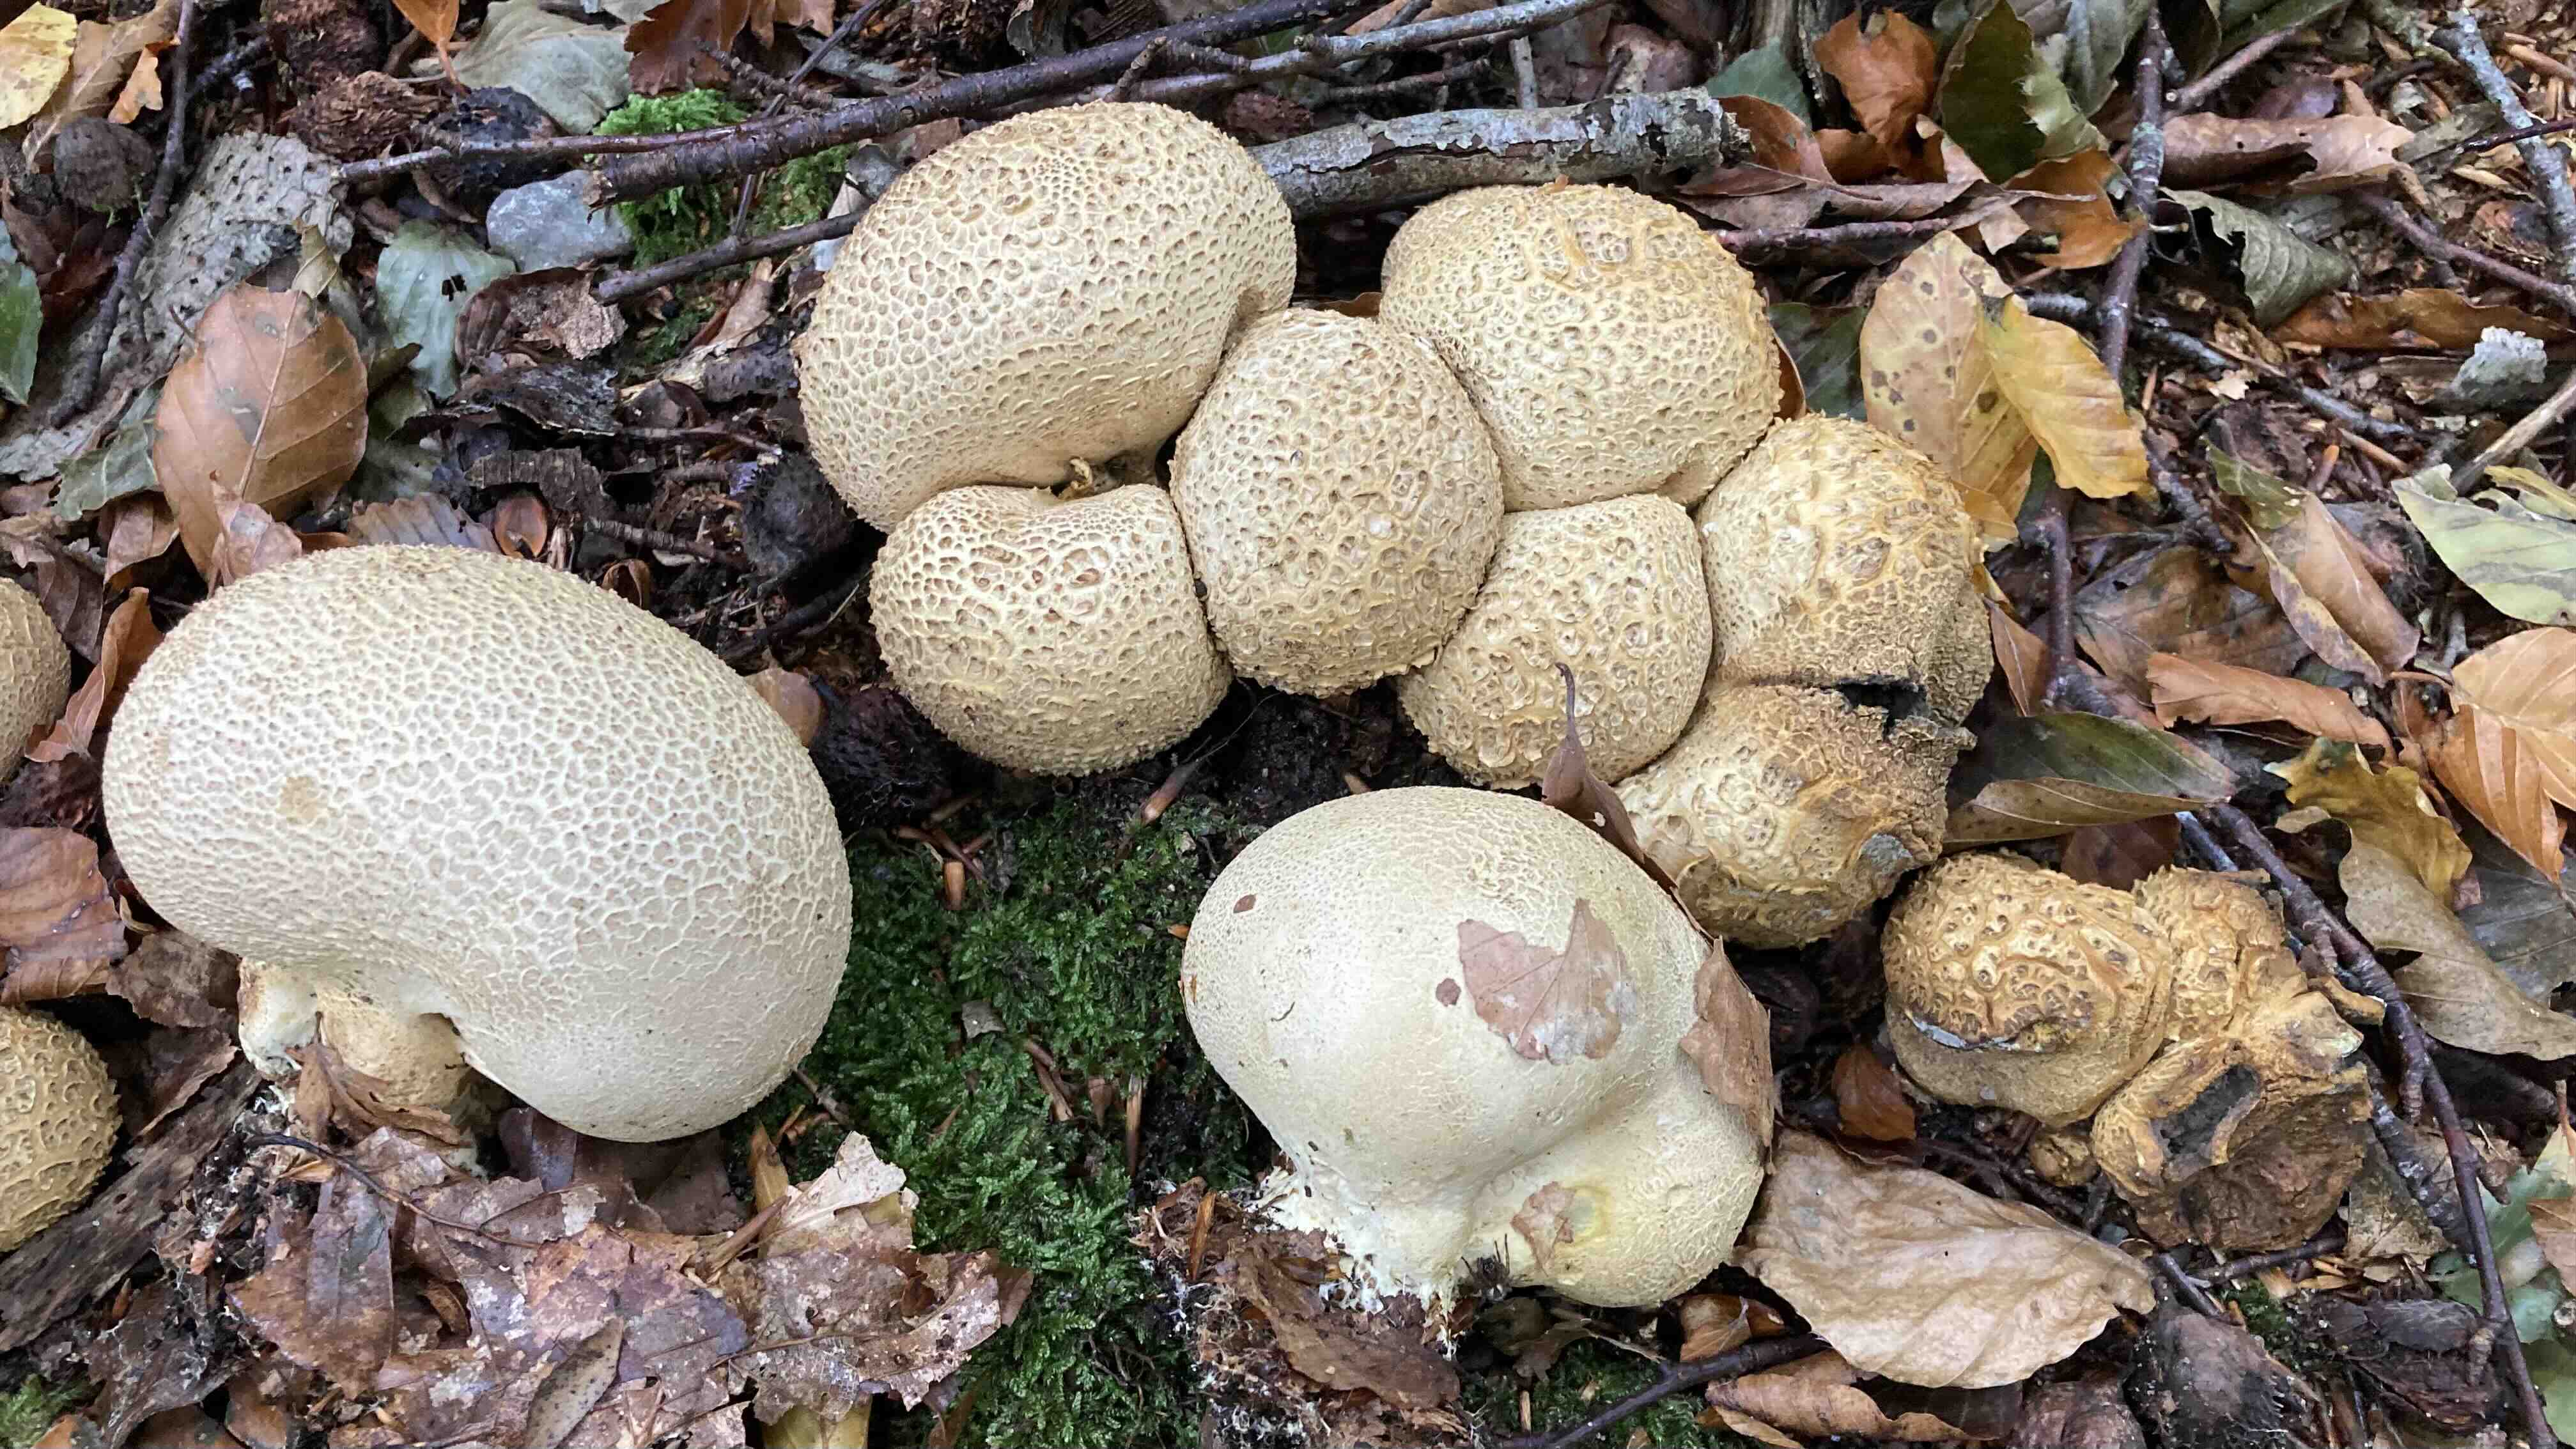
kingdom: Fungi
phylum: Basidiomycota
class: Agaricomycetes
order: Boletales
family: Sclerodermataceae
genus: Scleroderma
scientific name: Scleroderma citrinum
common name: almindelig bruskbold
